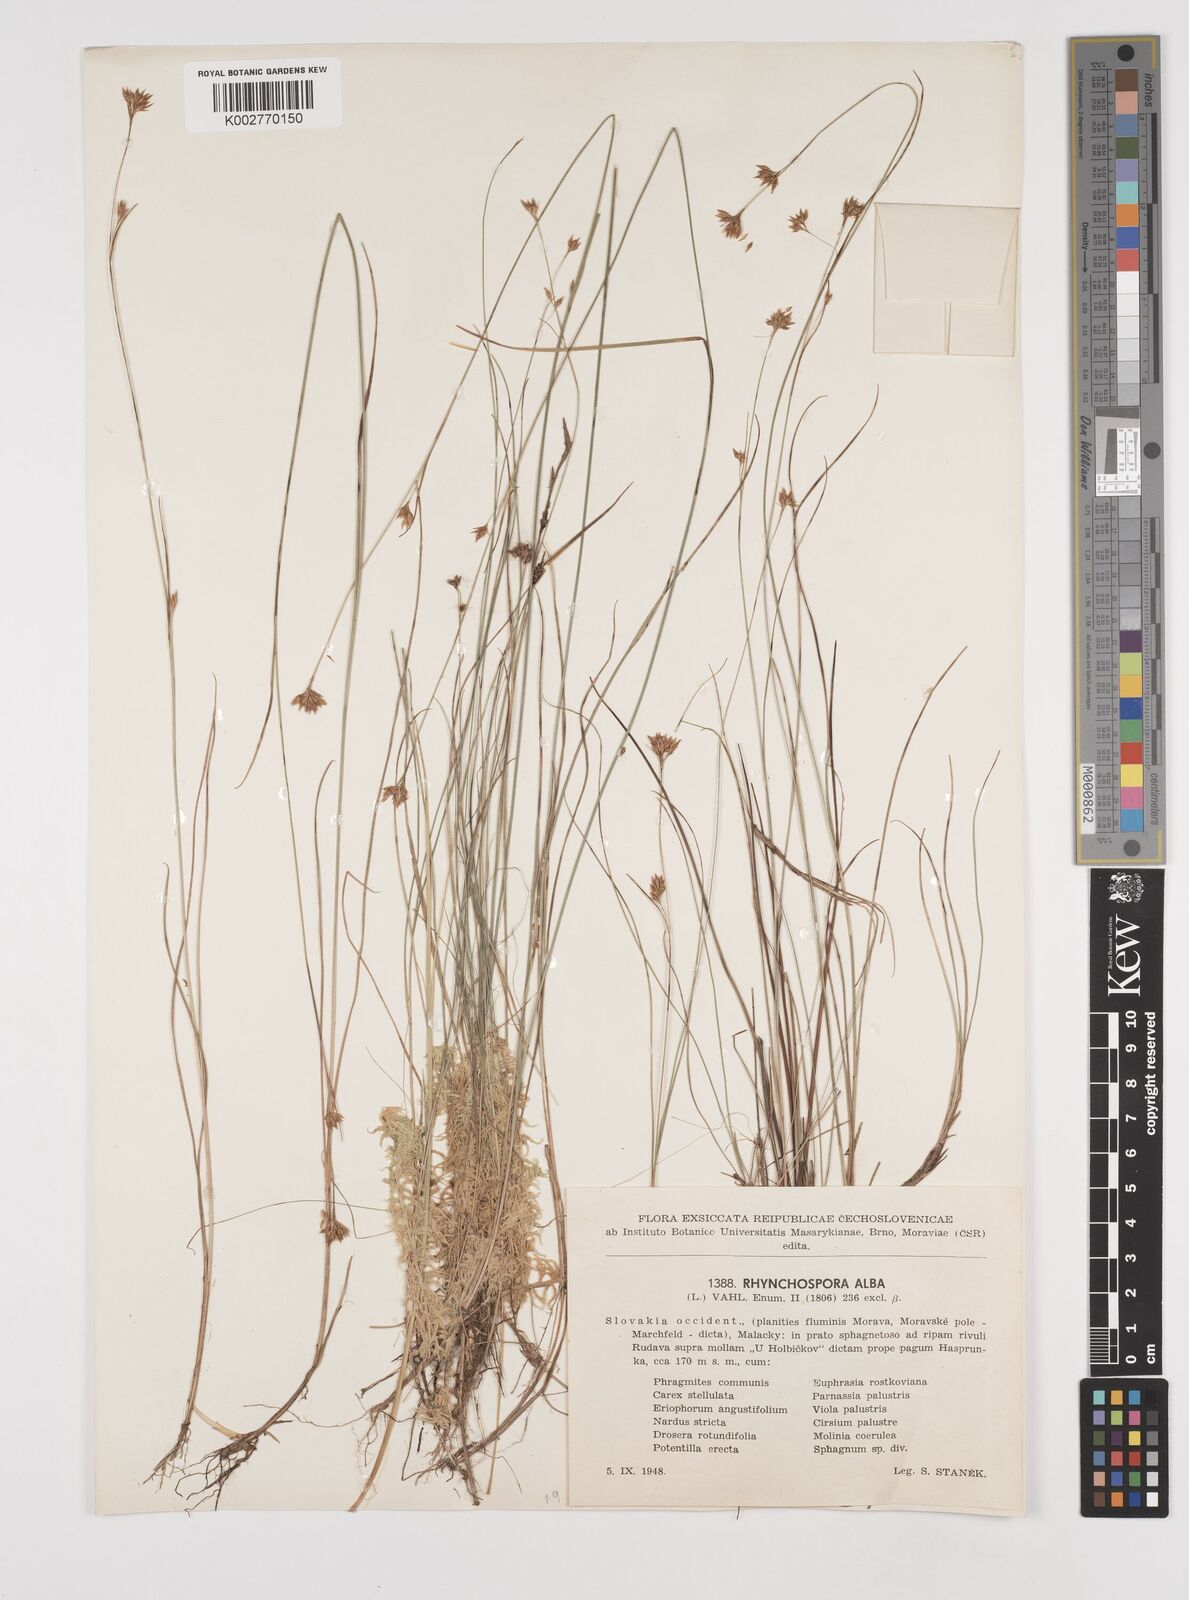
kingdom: Plantae
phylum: Tracheophyta
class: Liliopsida
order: Poales
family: Cyperaceae
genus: Rhynchospora
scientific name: Rhynchospora alba
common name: White beak-sedge
